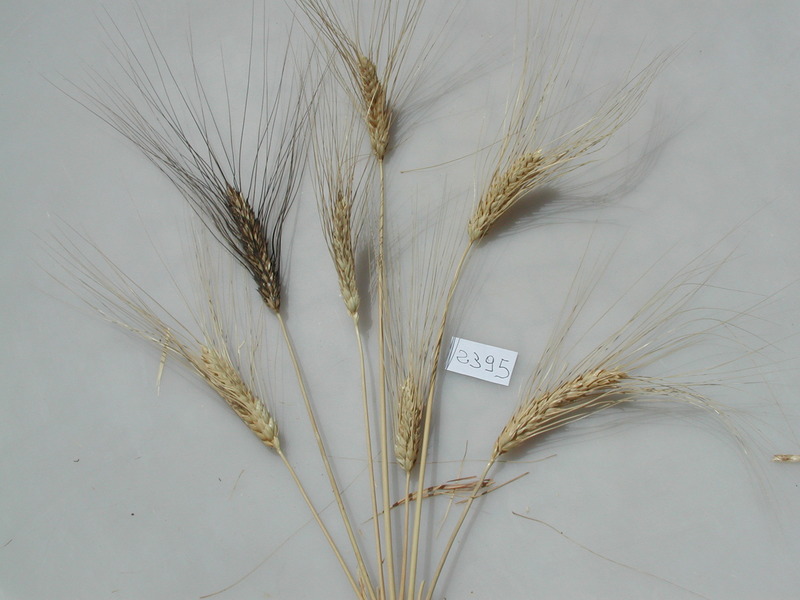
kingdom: Plantae
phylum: Tracheophyta
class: Liliopsida
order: Poales
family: Poaceae
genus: Triticum
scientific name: Triticum turgidum
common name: Wheat
